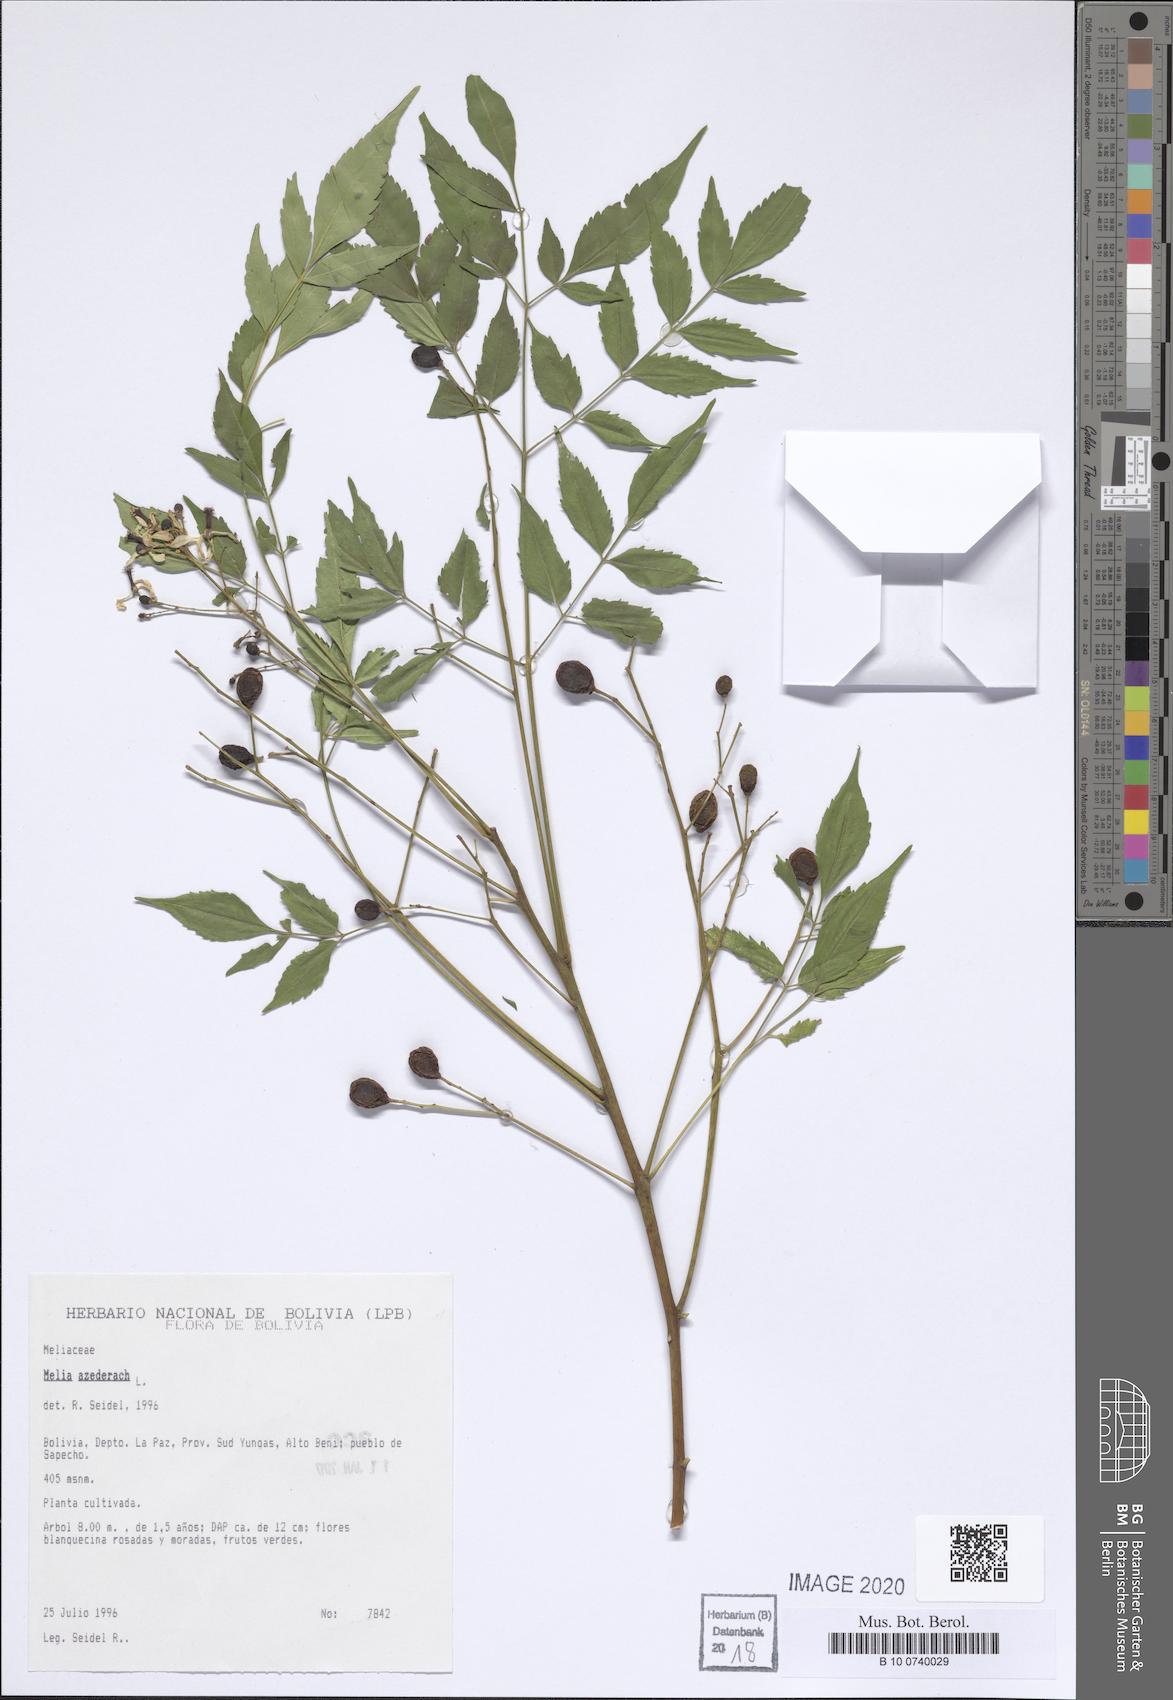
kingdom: Plantae
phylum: Tracheophyta
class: Magnoliopsida
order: Sapindales
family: Meliaceae
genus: Melia
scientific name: Melia azedarach
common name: Chinaberrytree
